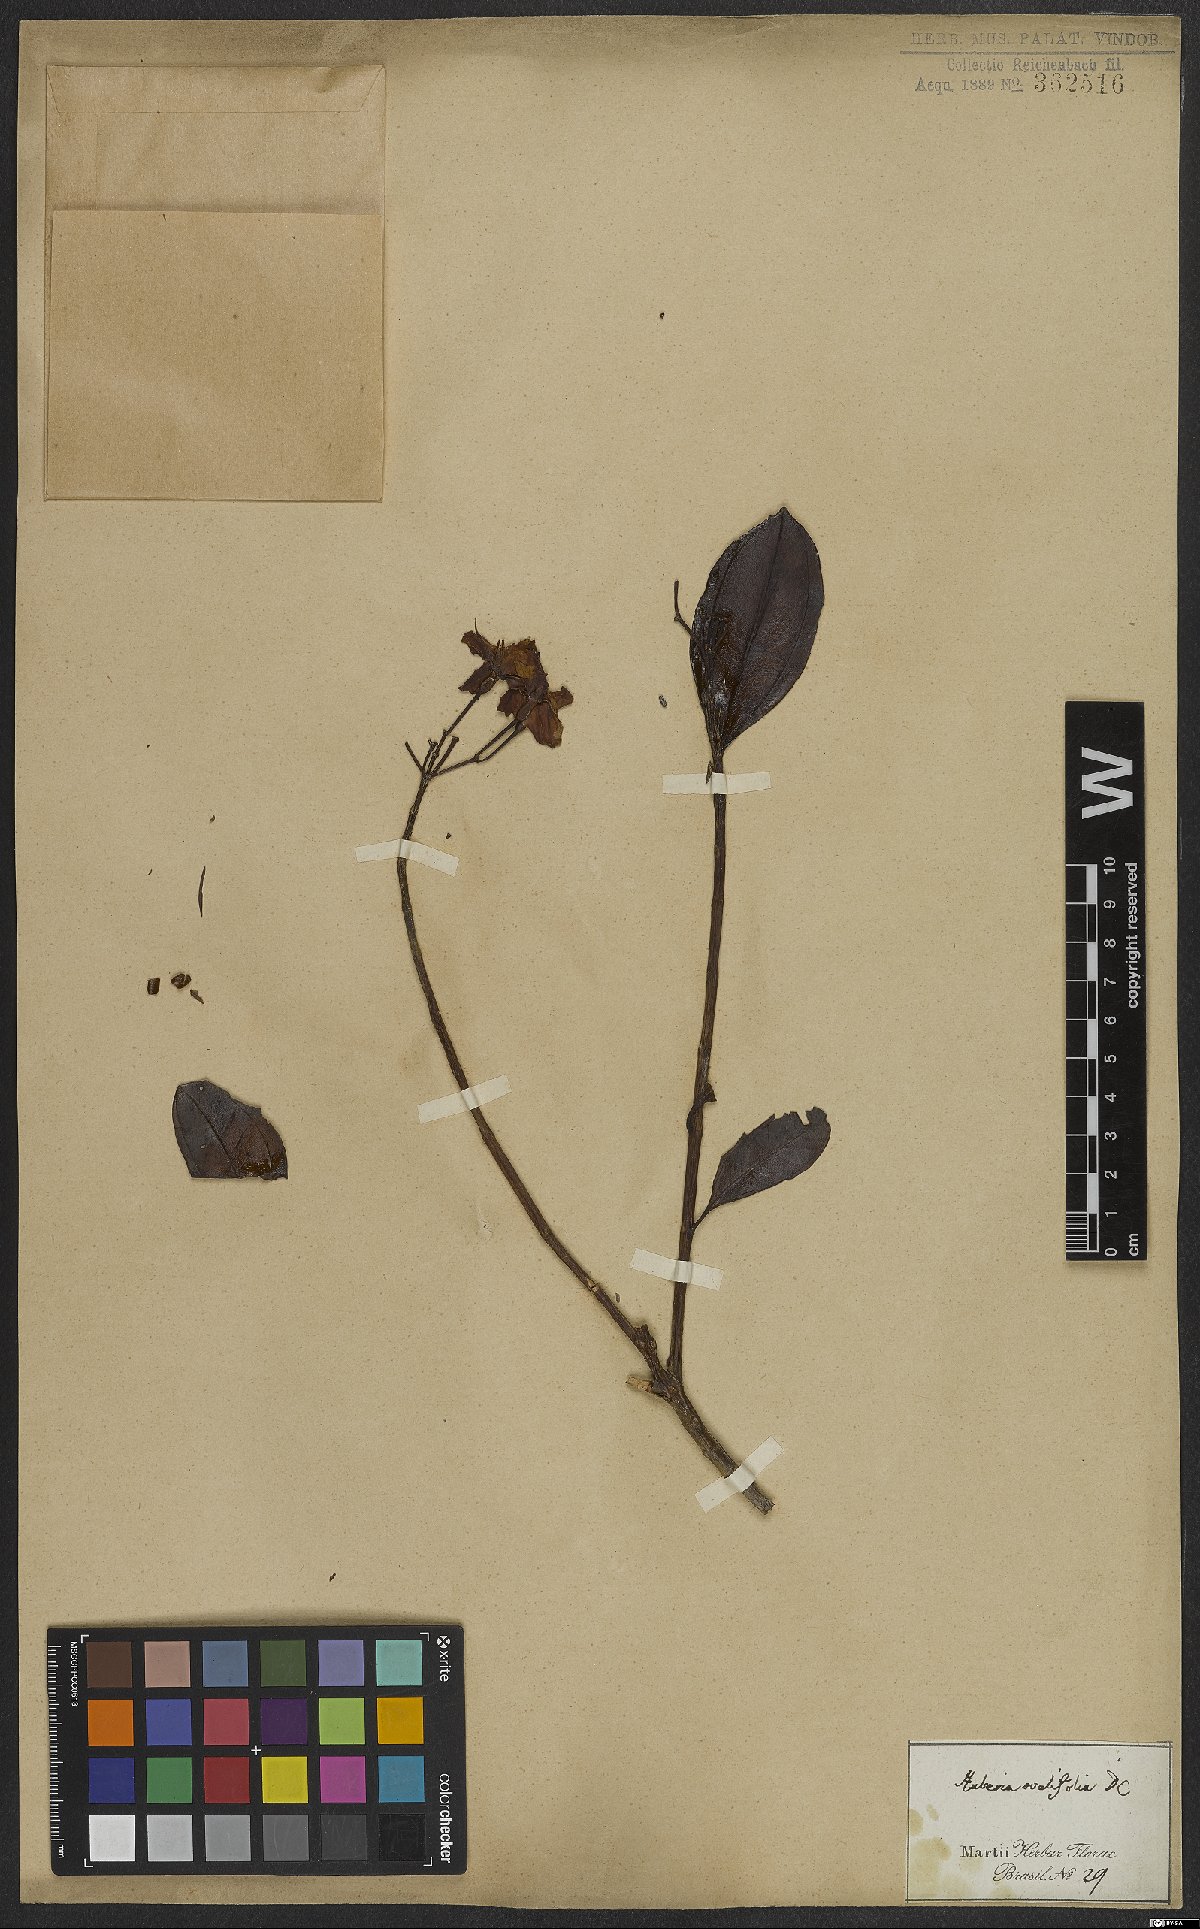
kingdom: Plantae
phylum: Tracheophyta
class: Magnoliopsida
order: Myrtales
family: Melastomataceae
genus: Huberia
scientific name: Huberia ovalifolia
